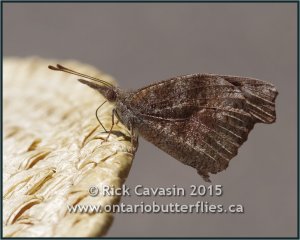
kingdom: Animalia
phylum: Arthropoda
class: Insecta
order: Lepidoptera
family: Nymphalidae
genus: Libytheana
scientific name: Libytheana carinenta
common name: American Snout
